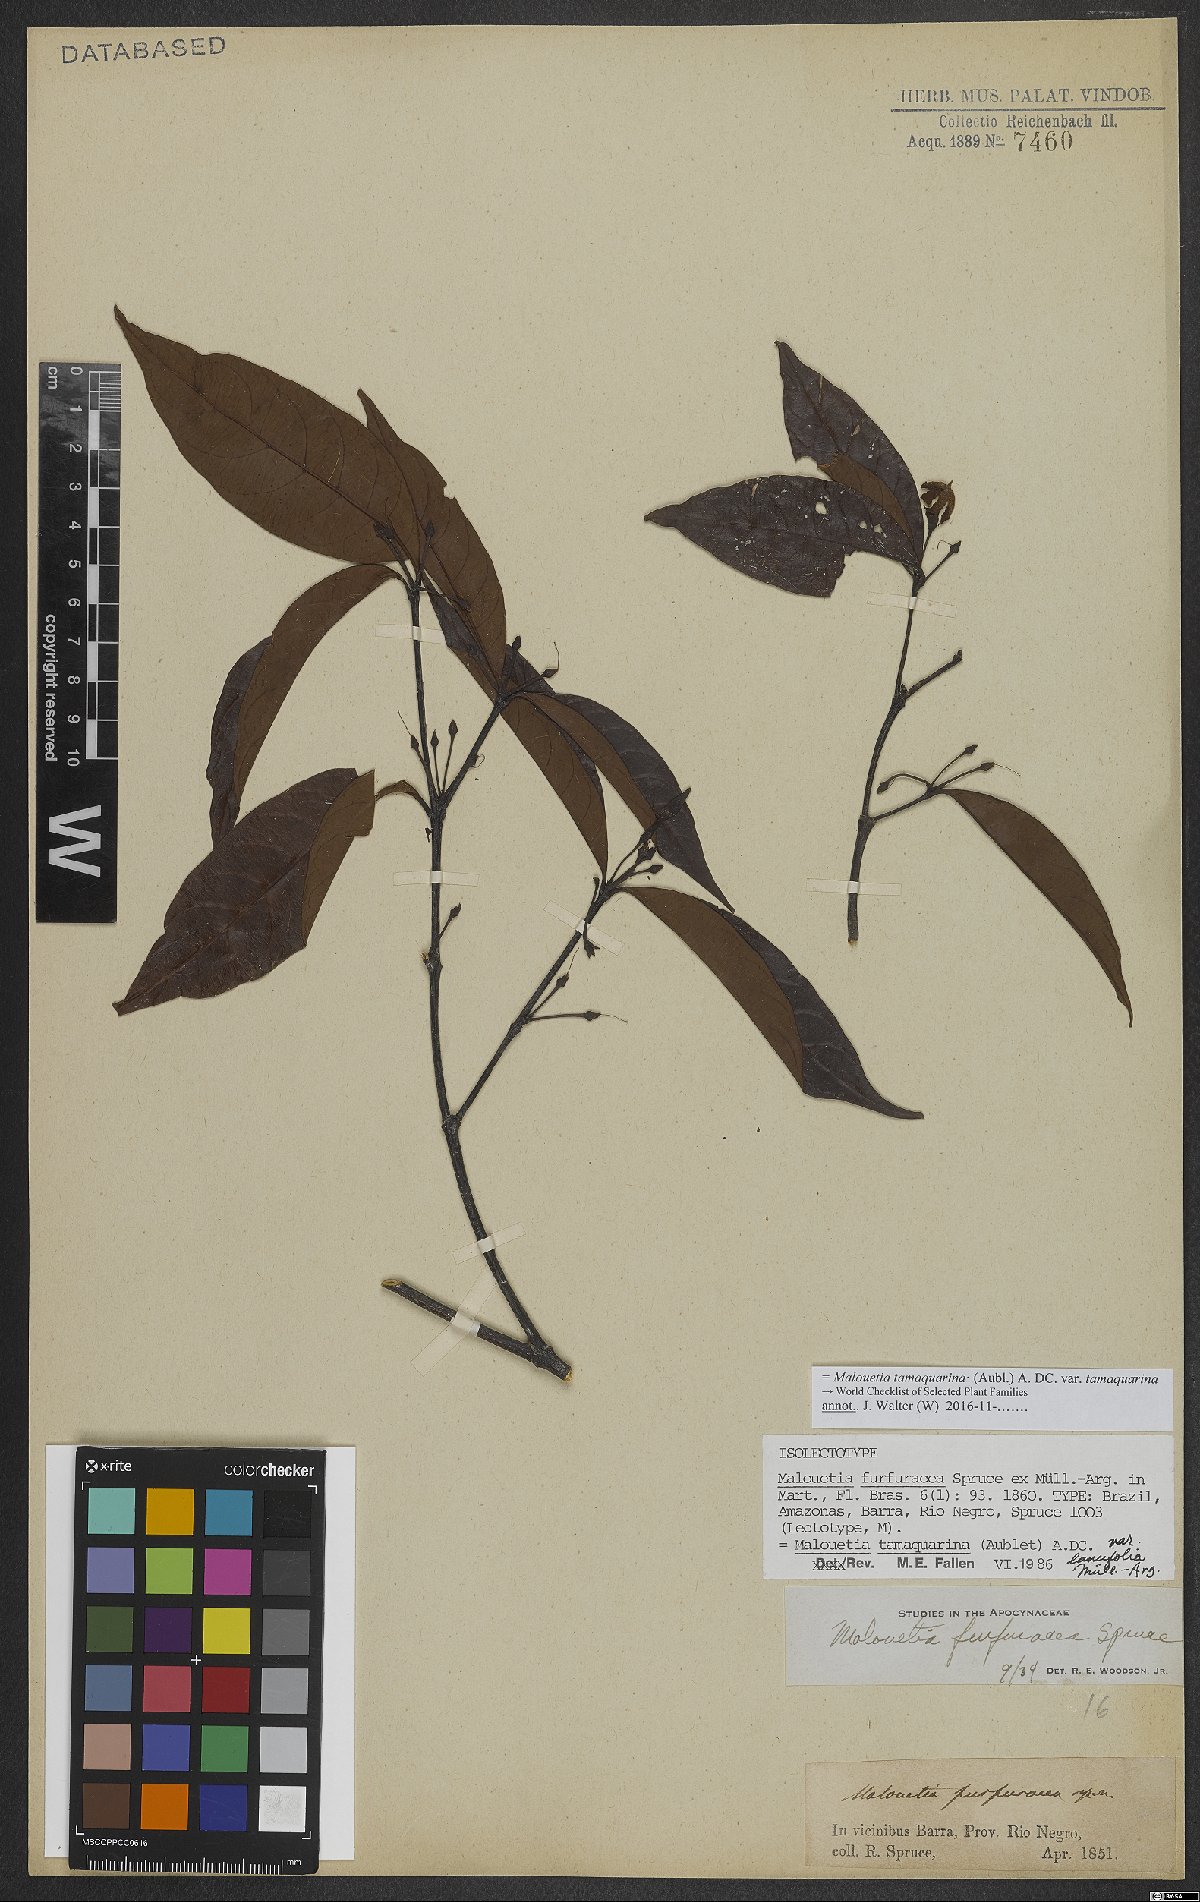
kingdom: Plantae
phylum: Tracheophyta
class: Magnoliopsida
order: Gentianales
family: Apocynaceae
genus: Malouetia
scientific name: Malouetia tamaquarina
